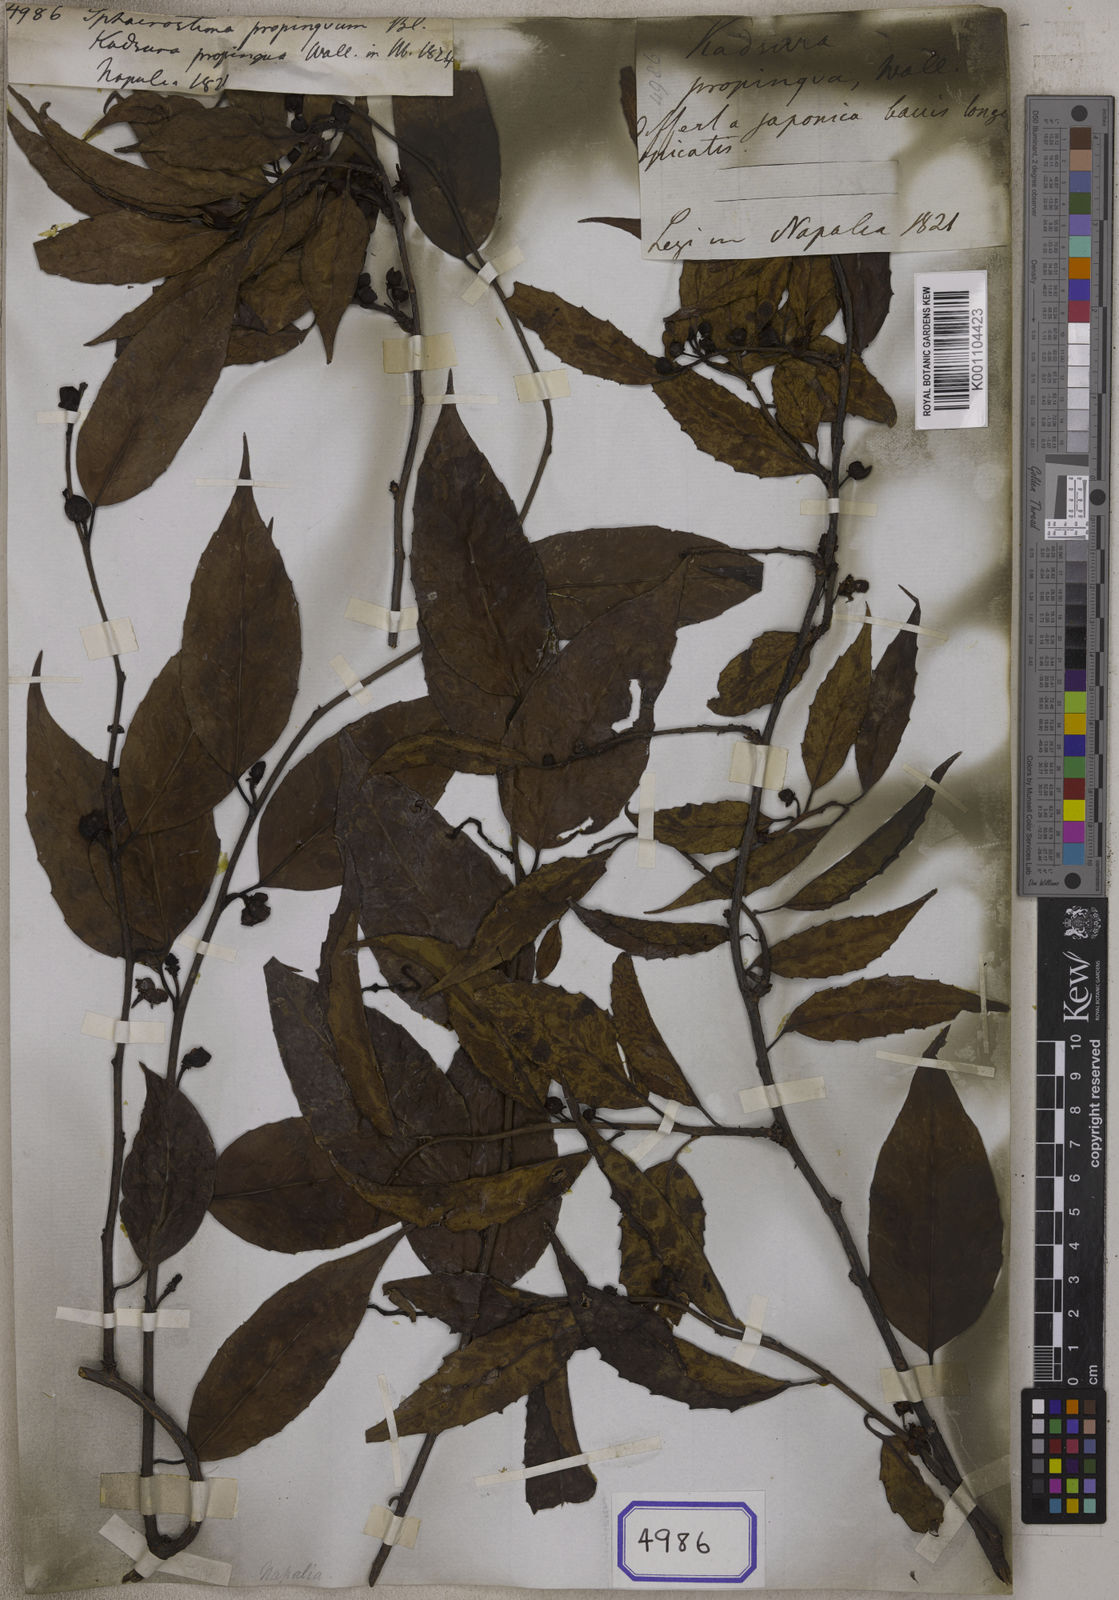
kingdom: Plantae
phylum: Tracheophyta
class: Magnoliopsida
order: Austrobaileyales
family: Schisandraceae
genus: Schisandra
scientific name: Schisandra propinqua
